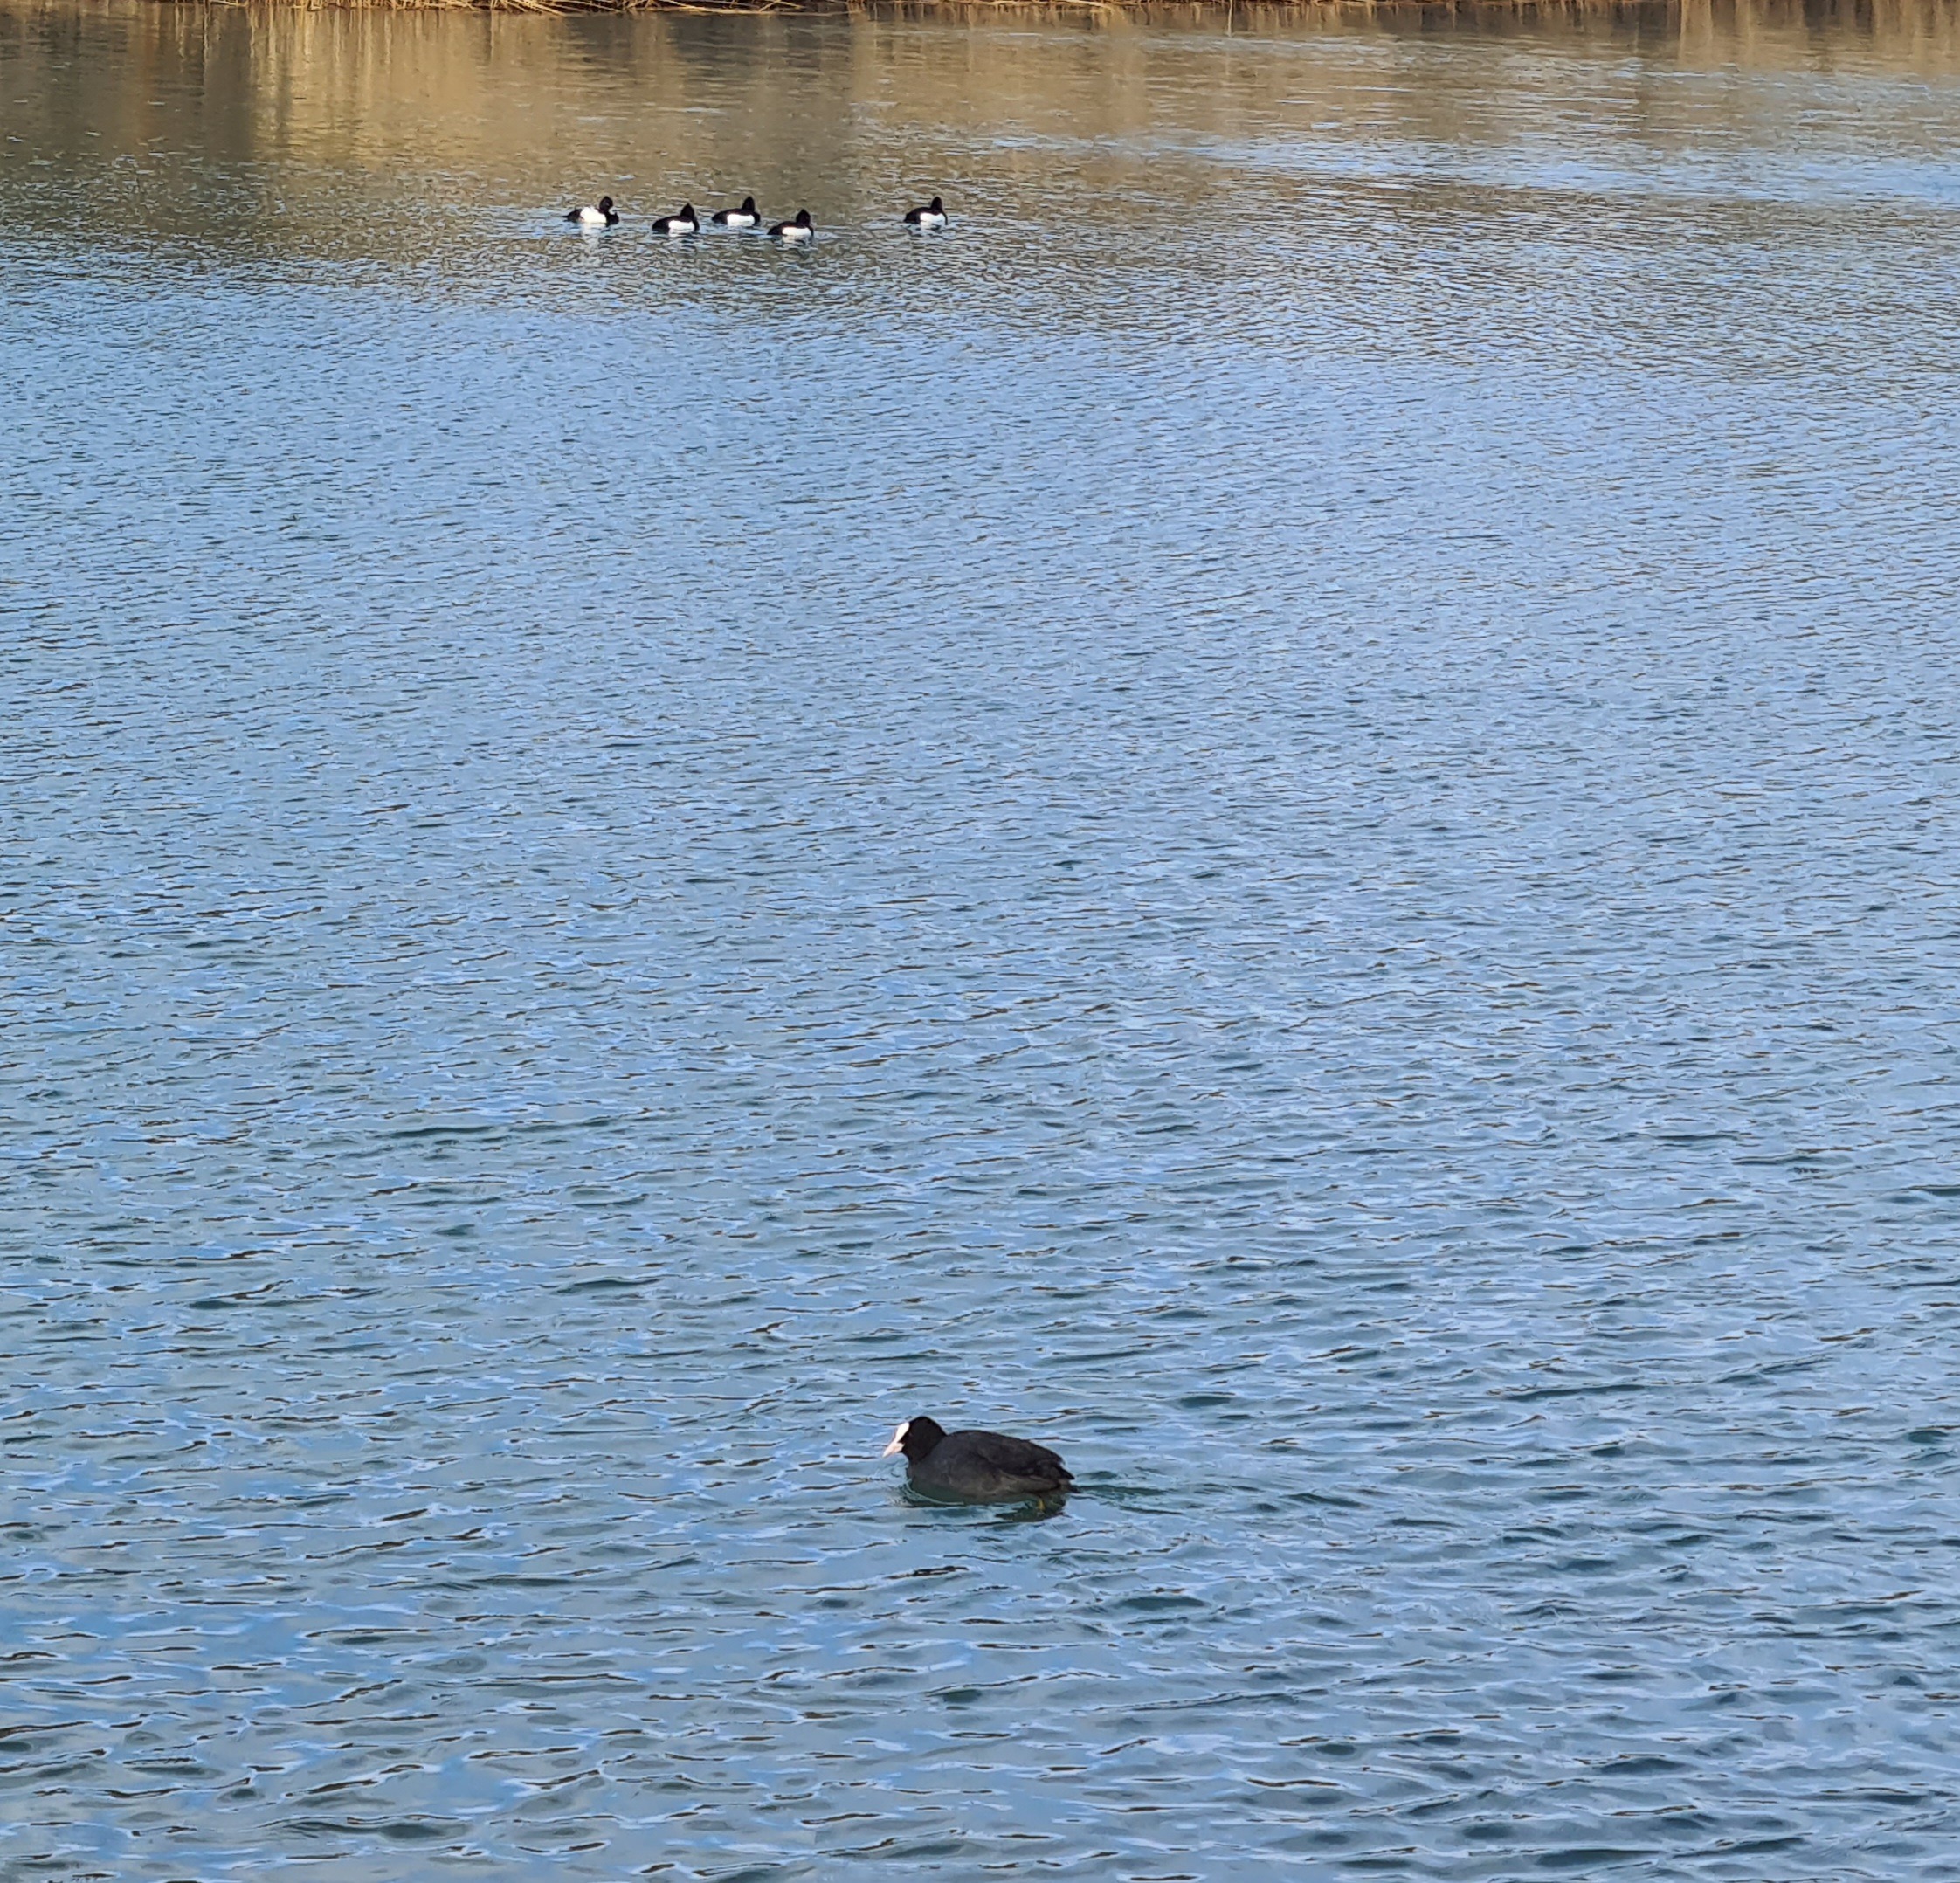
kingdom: Animalia
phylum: Chordata
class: Aves
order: Gruiformes
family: Rallidae
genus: Fulica
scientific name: Fulica atra
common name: Blishøne
